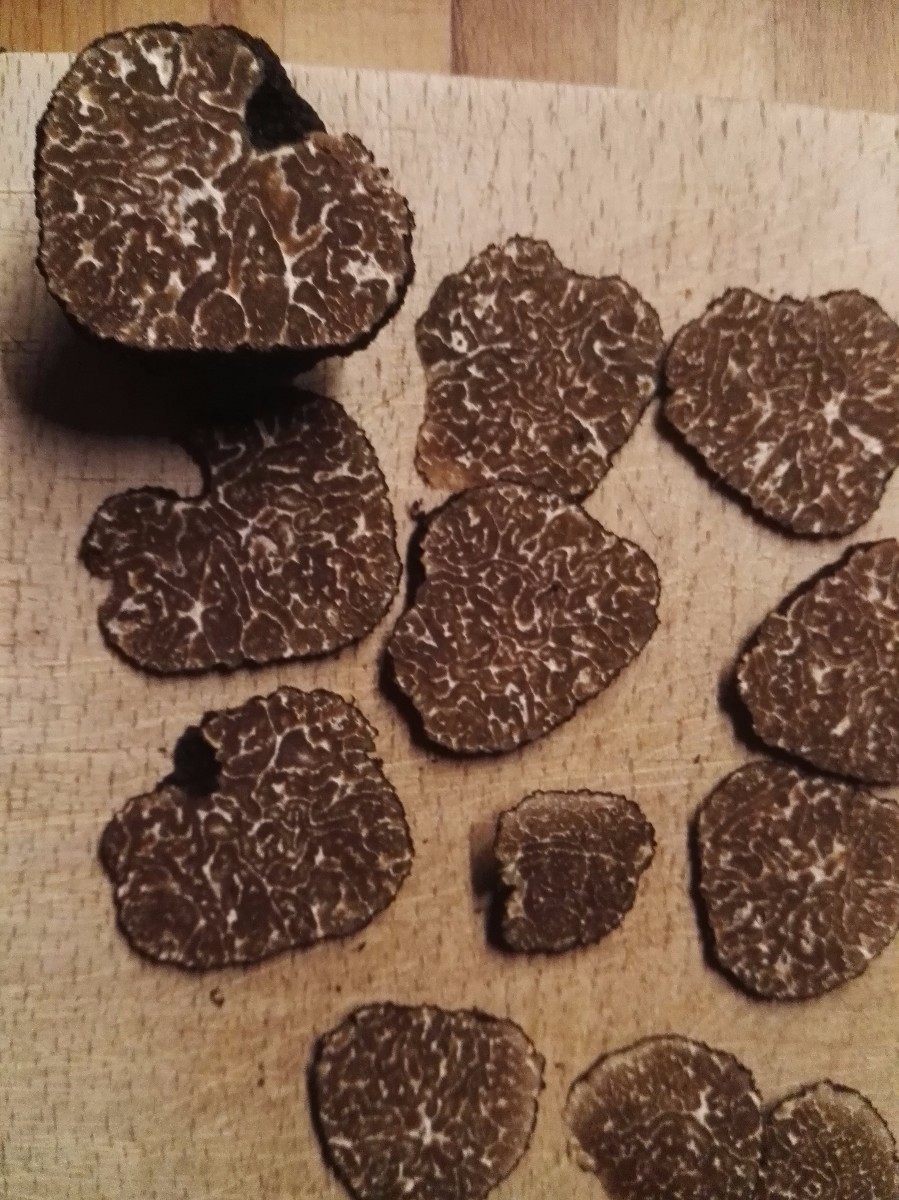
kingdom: Fungi
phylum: Ascomycota
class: Pezizomycetes
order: Pezizales
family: Tuberaceae
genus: Tuber
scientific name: Tuber mesentericum
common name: tjære-trøffel
